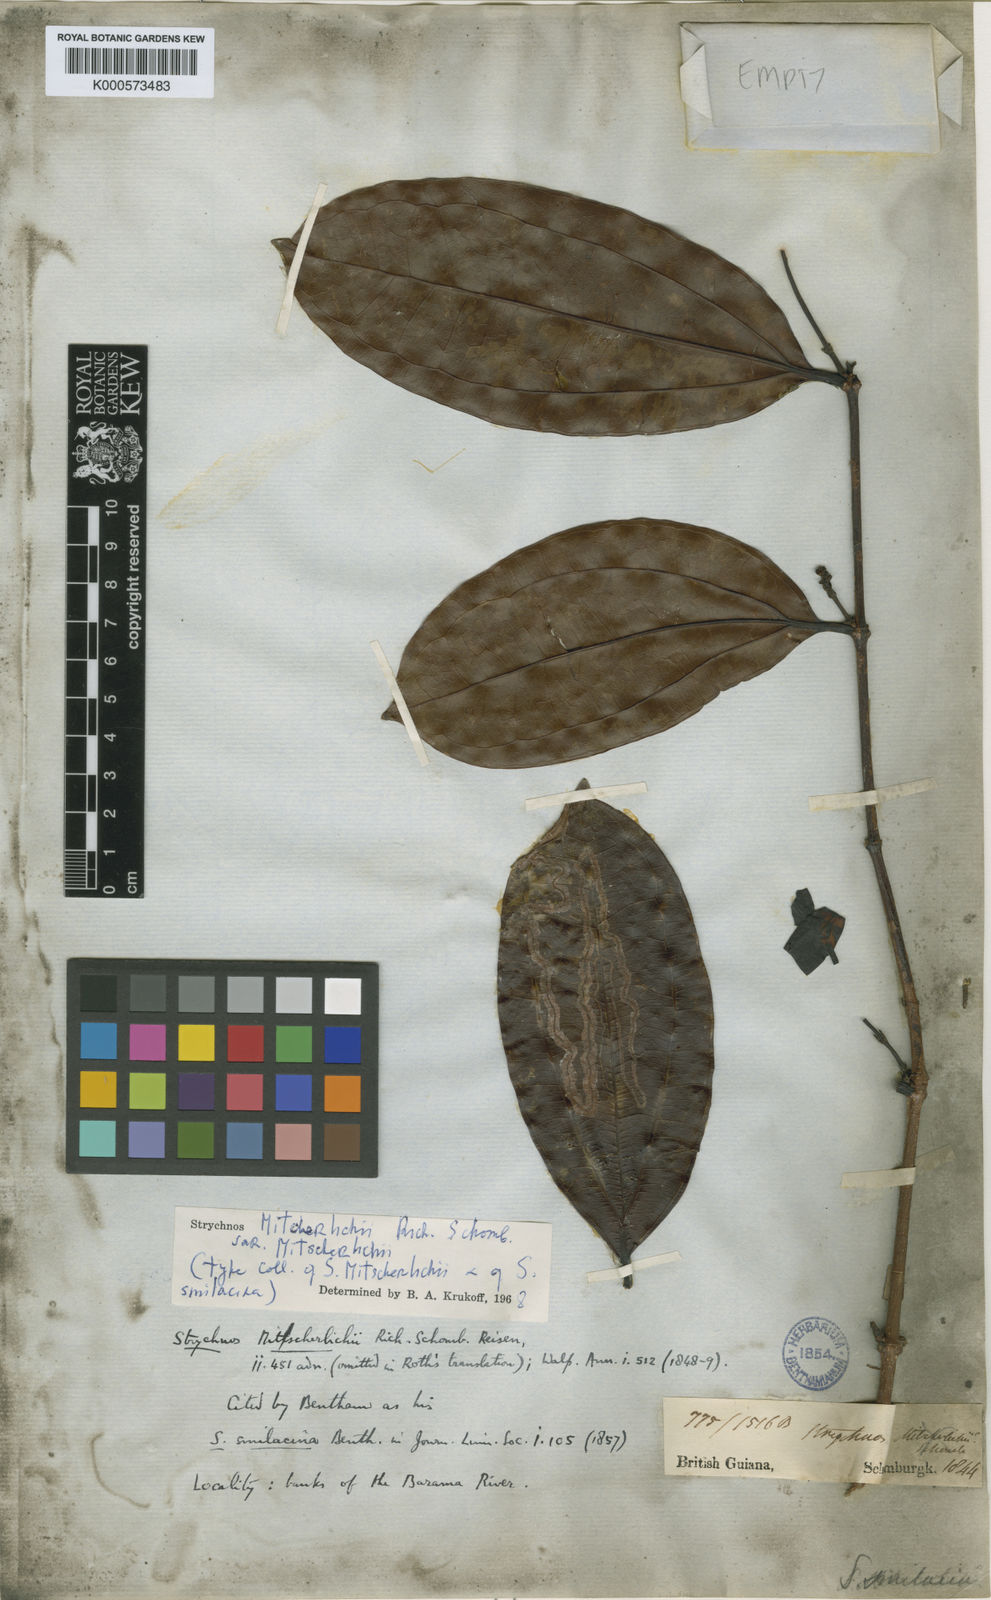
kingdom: Plantae
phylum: Tracheophyta
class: Magnoliopsida
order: Gentianales
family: Loganiaceae
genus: Strychnos
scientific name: Strychnos mitscherlichii
